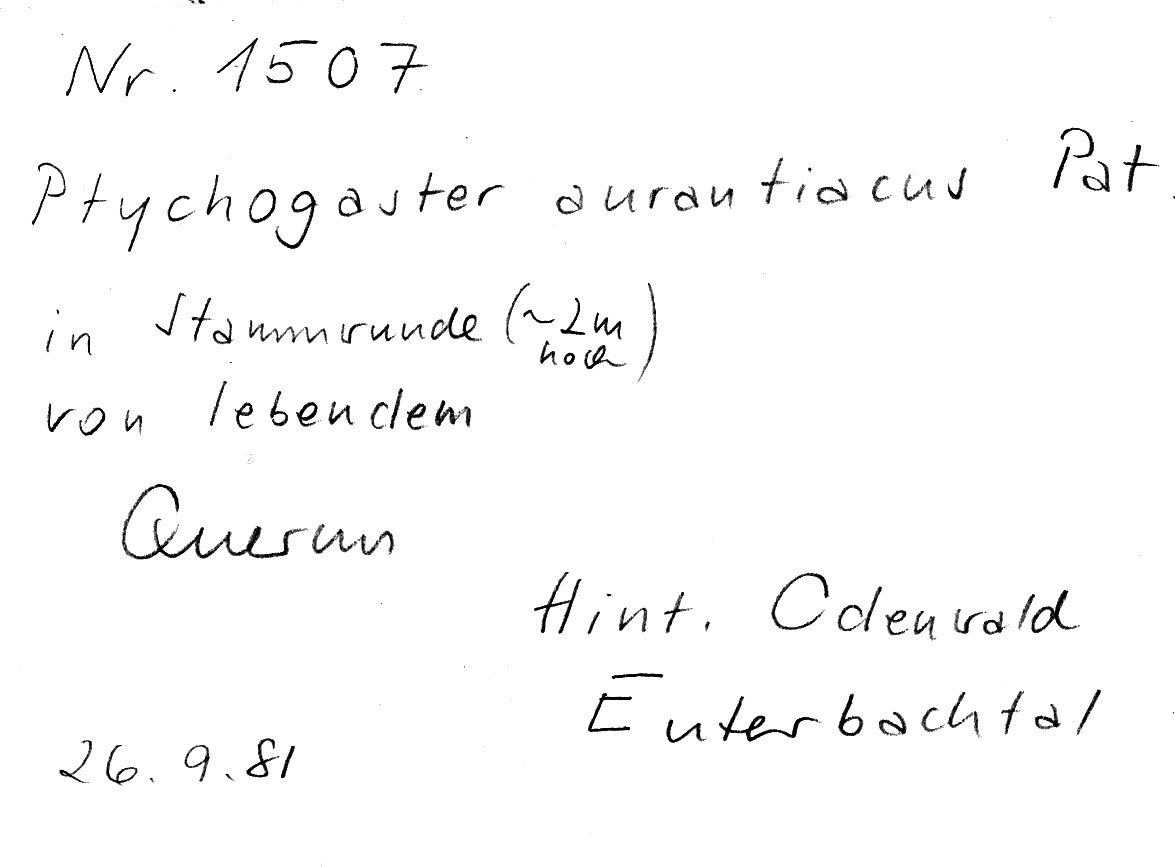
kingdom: Plantae
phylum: Tracheophyta
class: Magnoliopsida
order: Fagales
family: Fagaceae
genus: Quercus
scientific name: Quercus
